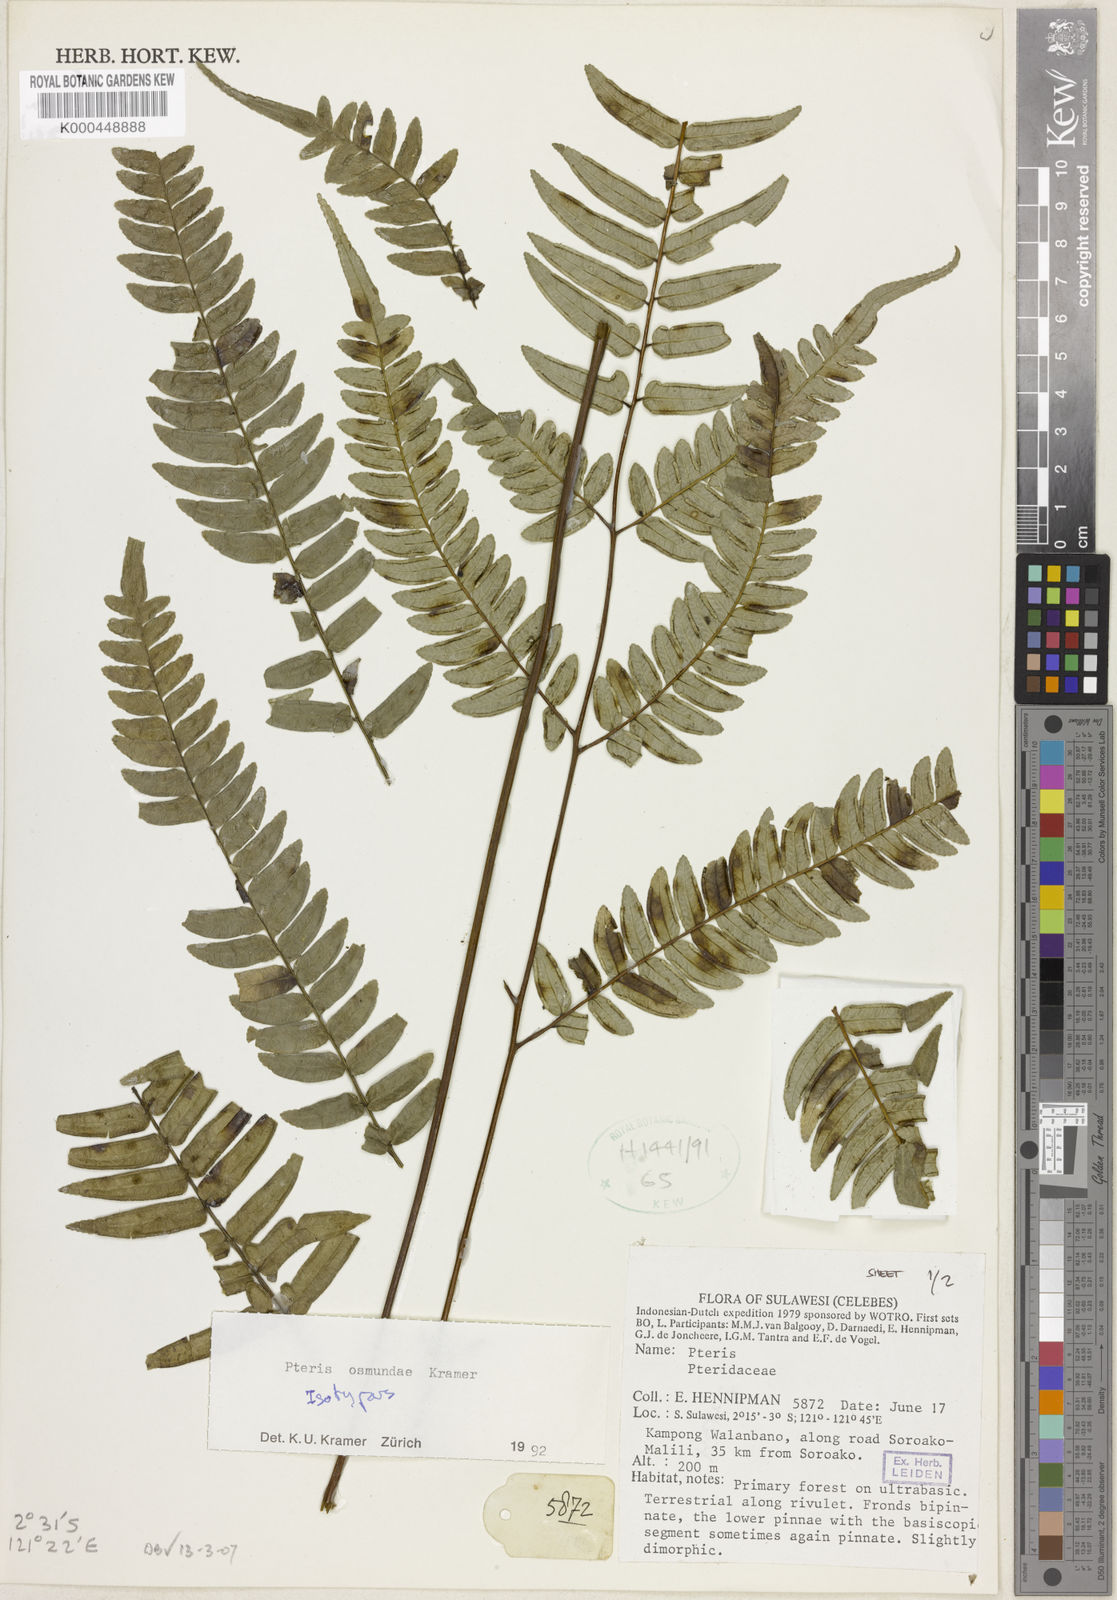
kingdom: Plantae
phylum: Tracheophyta
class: Polypodiopsida
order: Polypodiales
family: Pteridaceae
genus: Pteris
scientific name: Pteris
